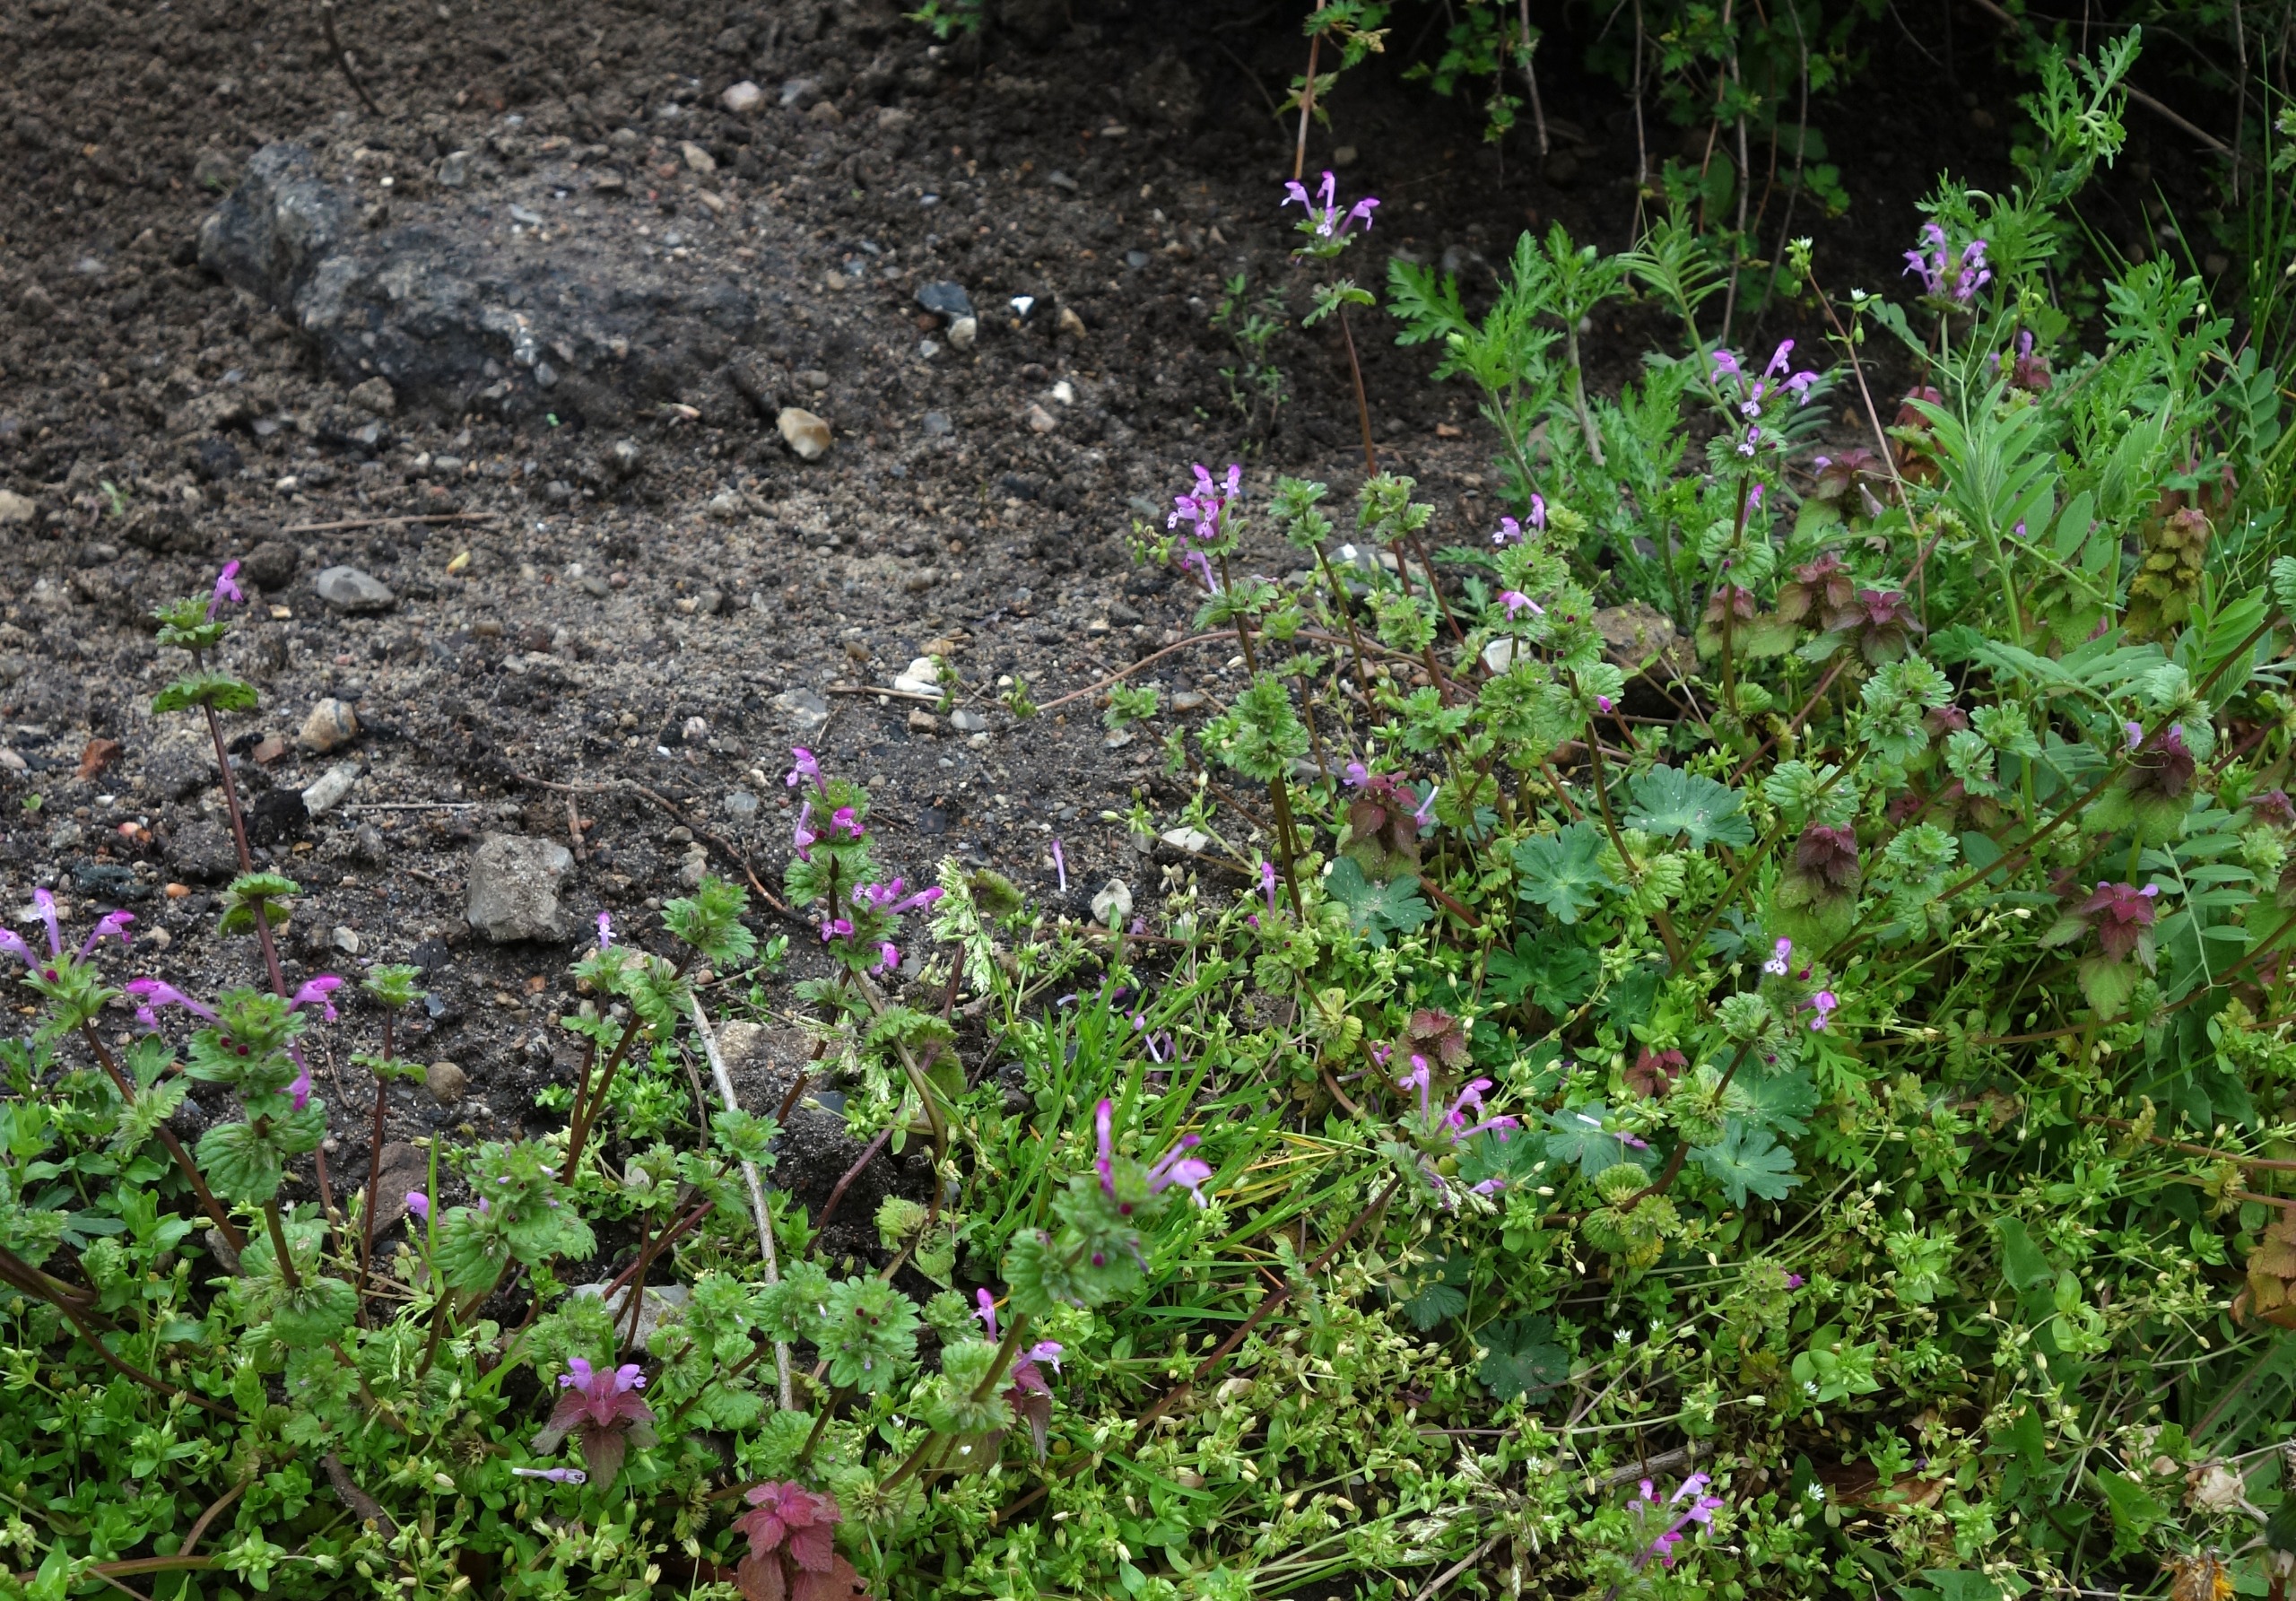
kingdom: Plantae
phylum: Tracheophyta
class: Magnoliopsida
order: Lamiales
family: Lamiaceae
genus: Lamium
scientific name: Lamium amplexicaule
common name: Liden tvetand
